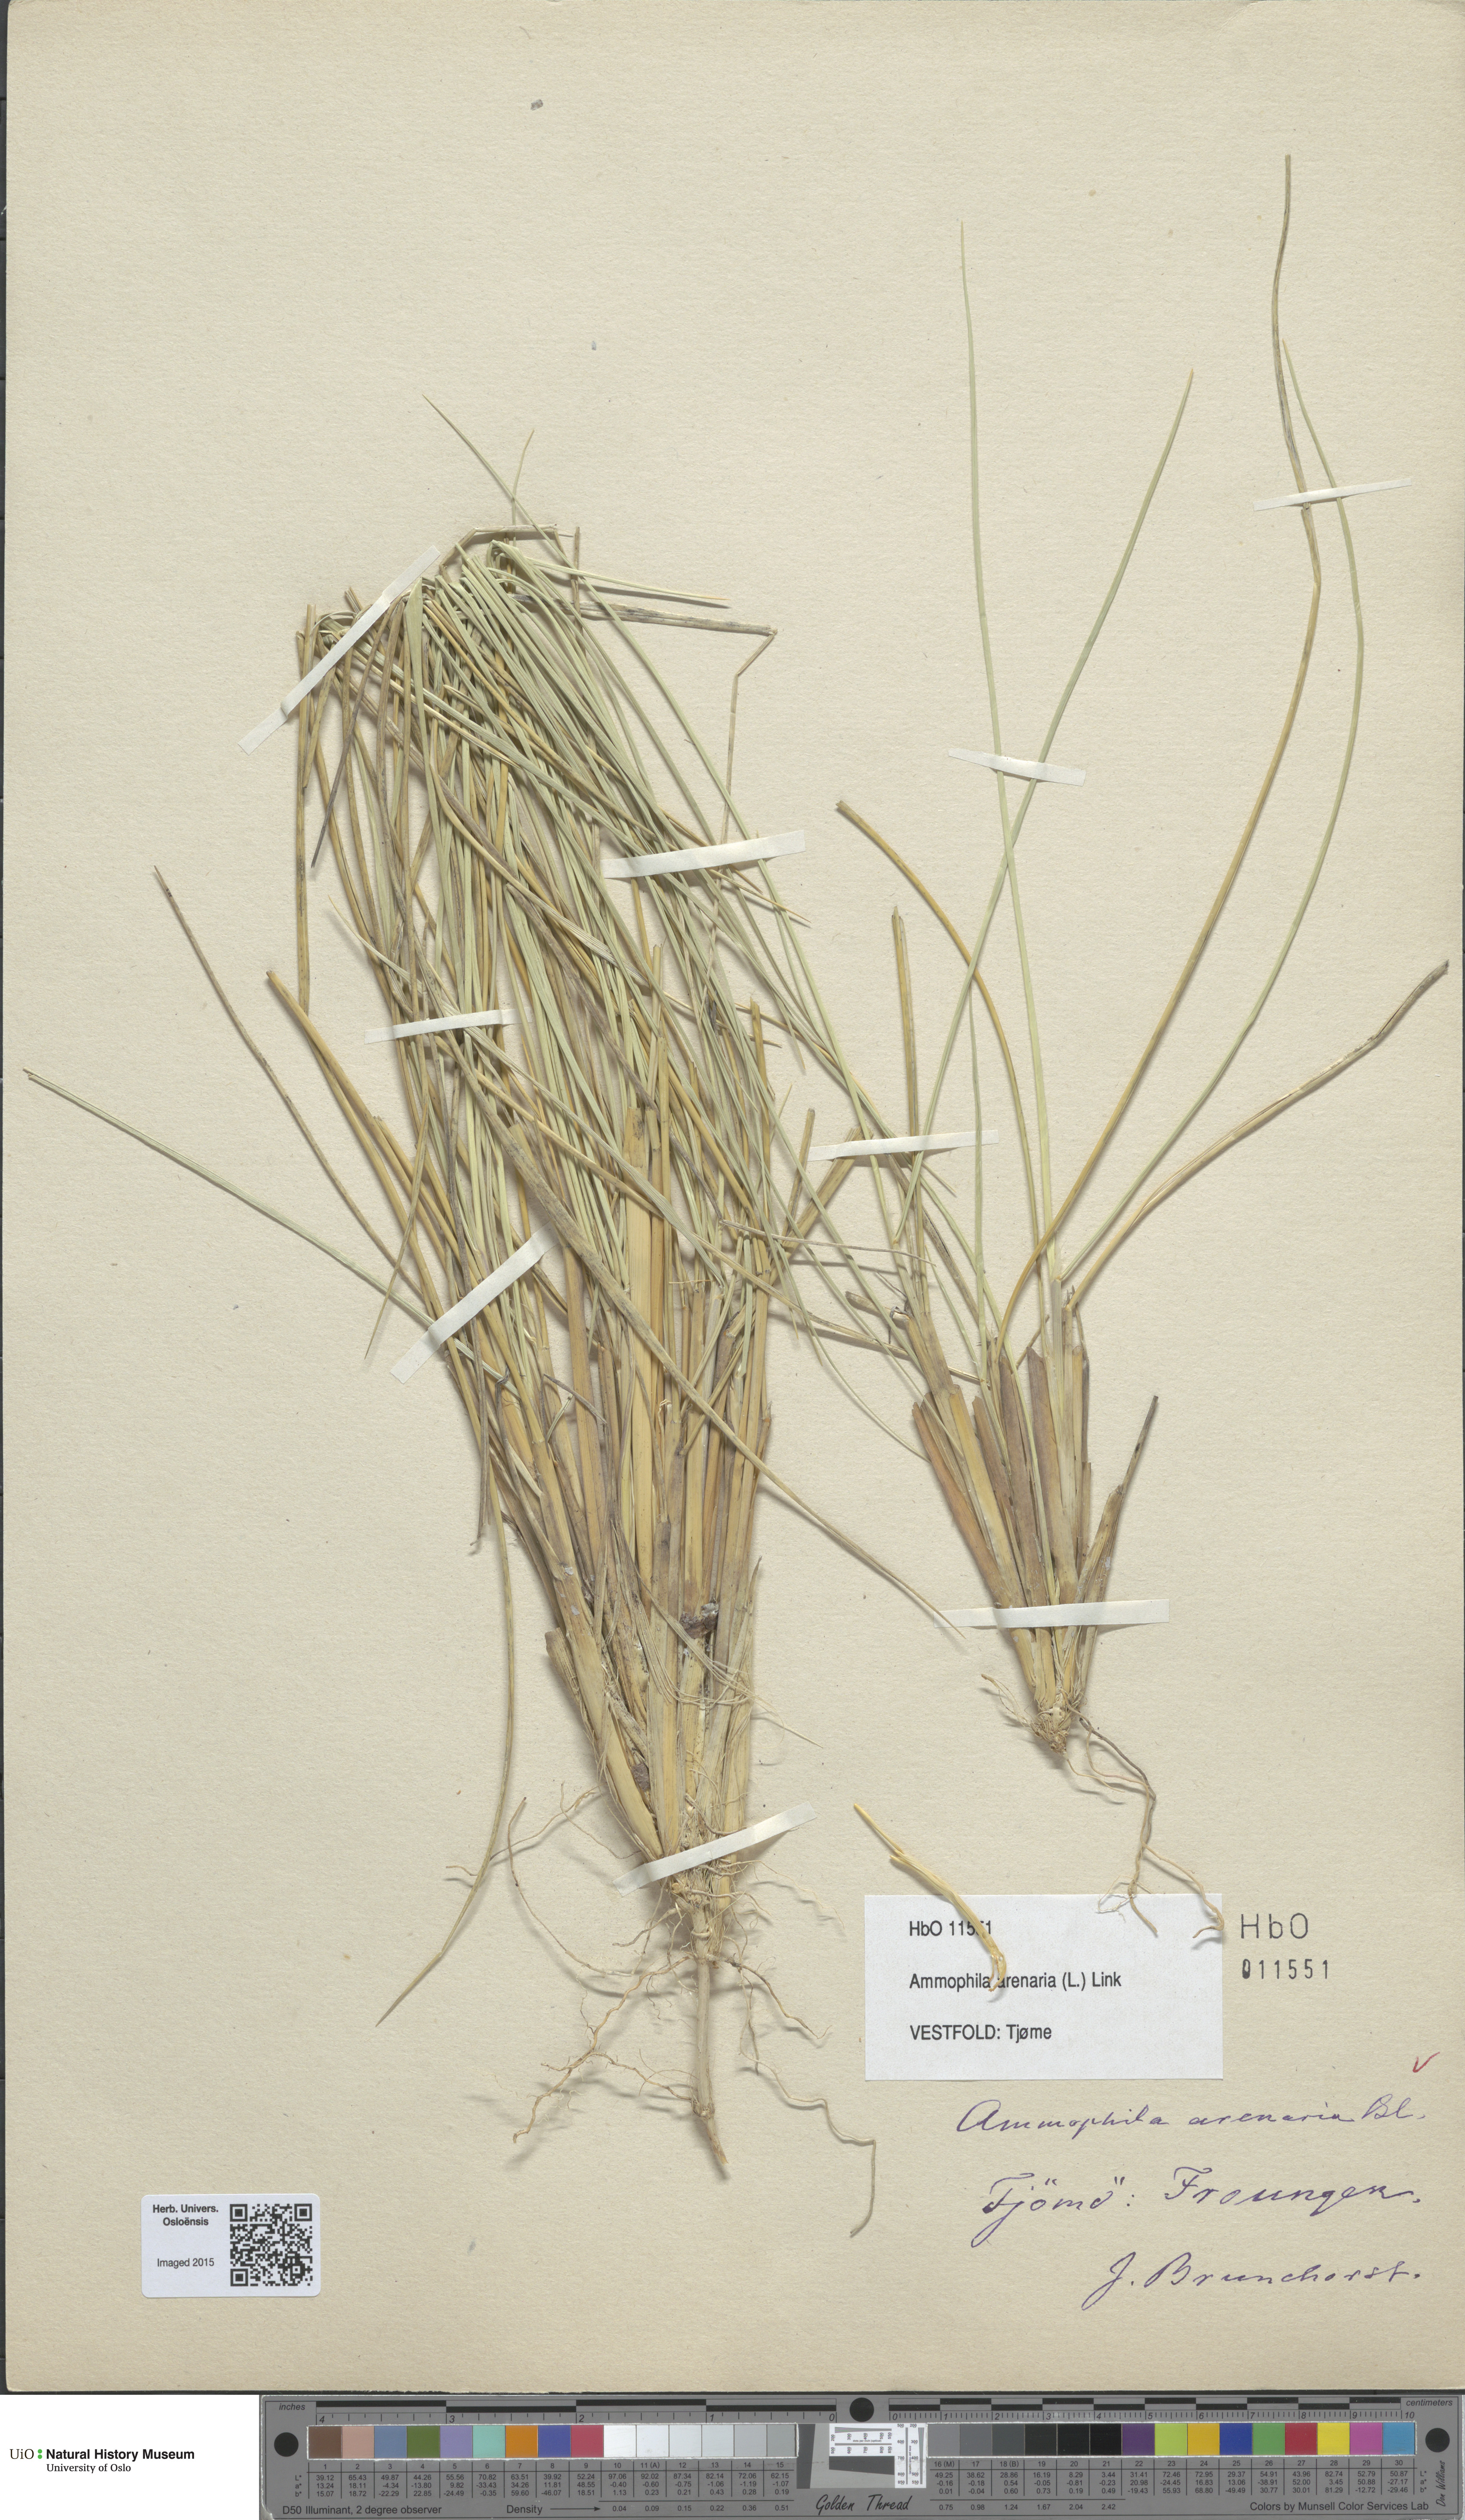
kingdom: Plantae
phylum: Tracheophyta
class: Liliopsida
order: Poales
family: Poaceae
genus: Calamagrostis
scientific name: Calamagrostis arenaria
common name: European beachgrass
